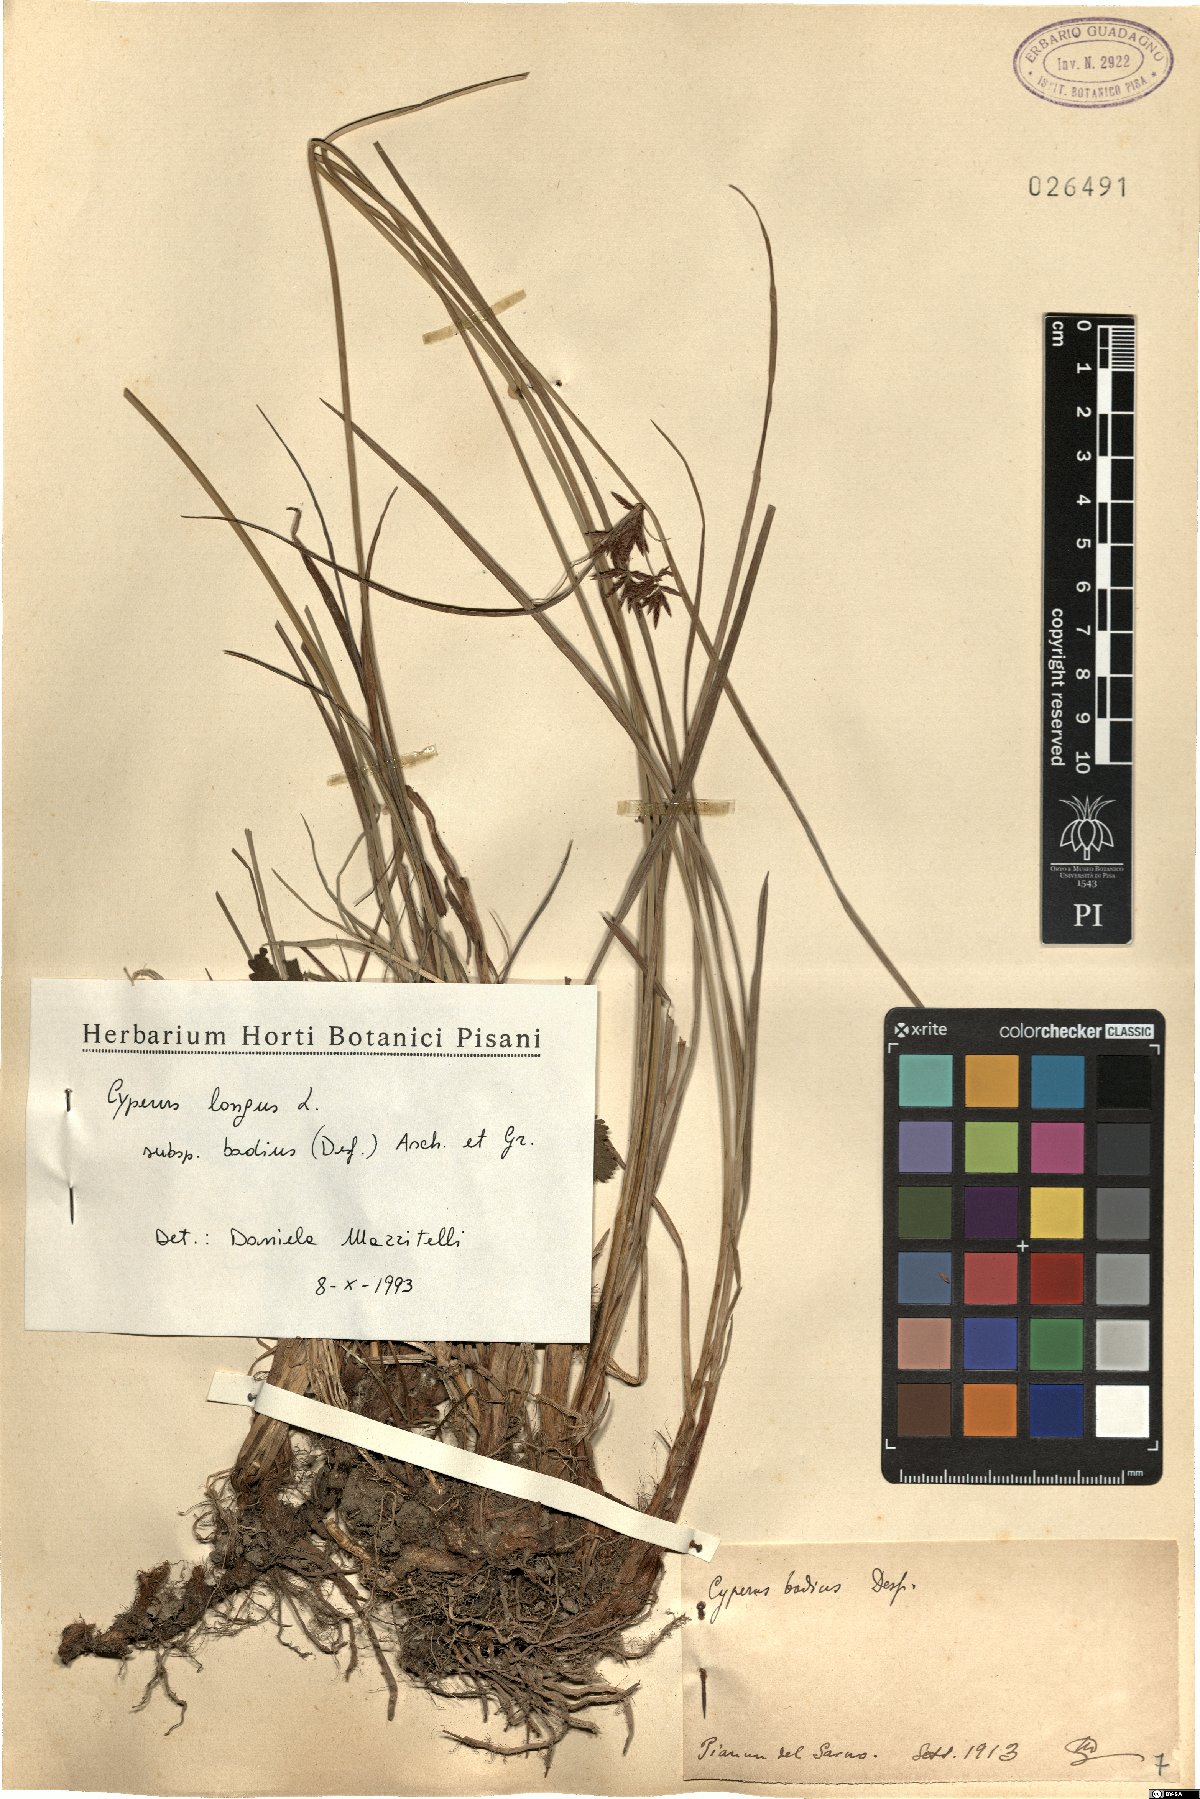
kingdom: Plantae
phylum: Tracheophyta
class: Liliopsida
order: Poales
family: Cyperaceae
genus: Cyperus
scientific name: Cyperus longus
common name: Galingale
